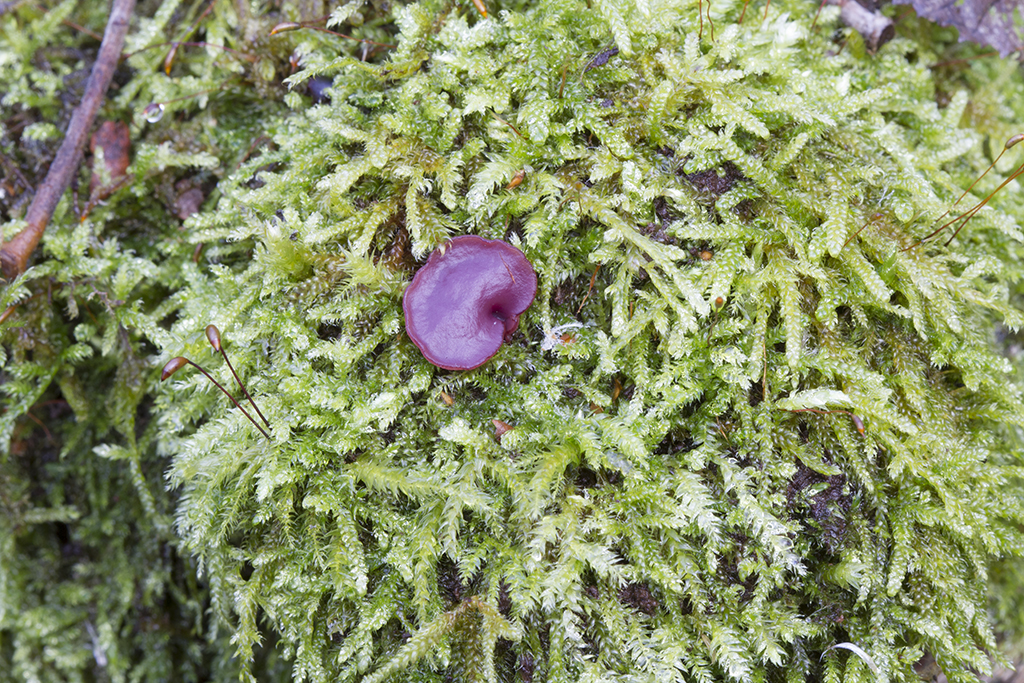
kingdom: Fungi
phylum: Ascomycota
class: Leotiomycetes
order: Helotiales
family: Gelatinodiscaceae
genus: Ascocoryne
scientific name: Ascocoryne cylichnium
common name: stor sejskive
